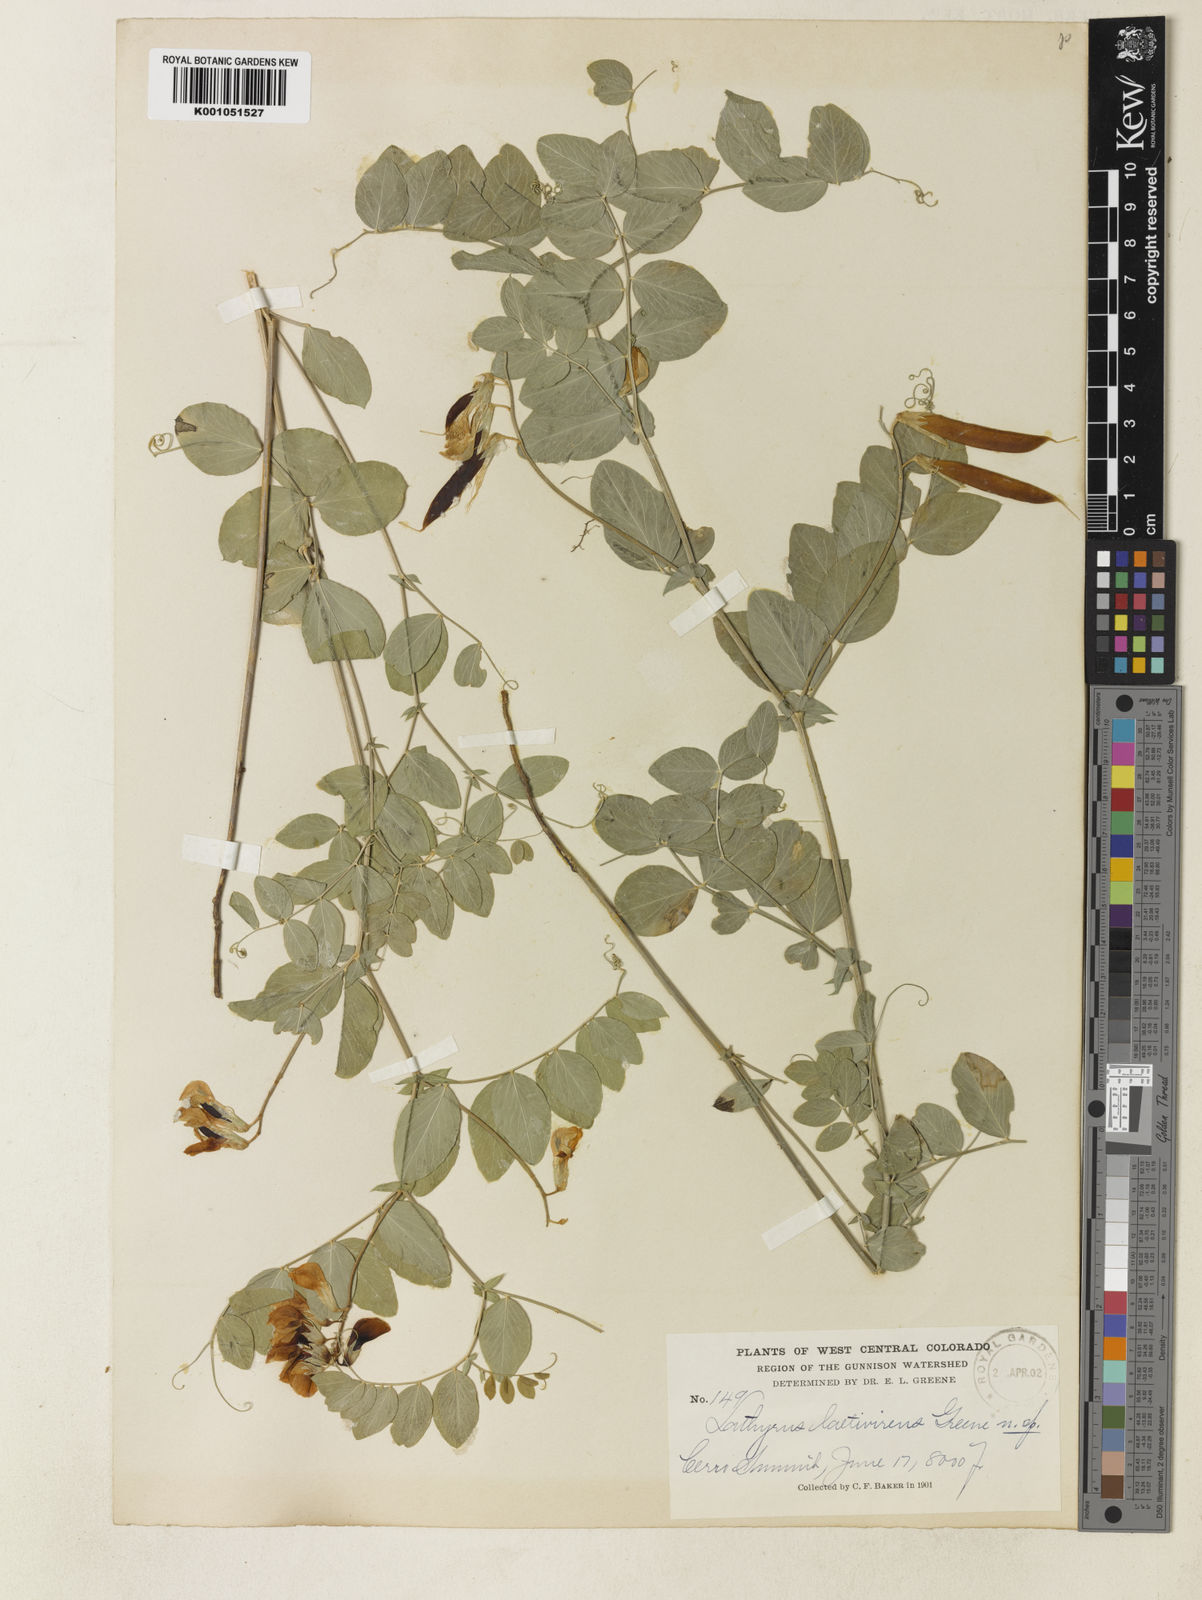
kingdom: Plantae
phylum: Tracheophyta
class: Magnoliopsida
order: Fabales
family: Fabaceae
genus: Lathyrus
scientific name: Lathyrus laetivirens
